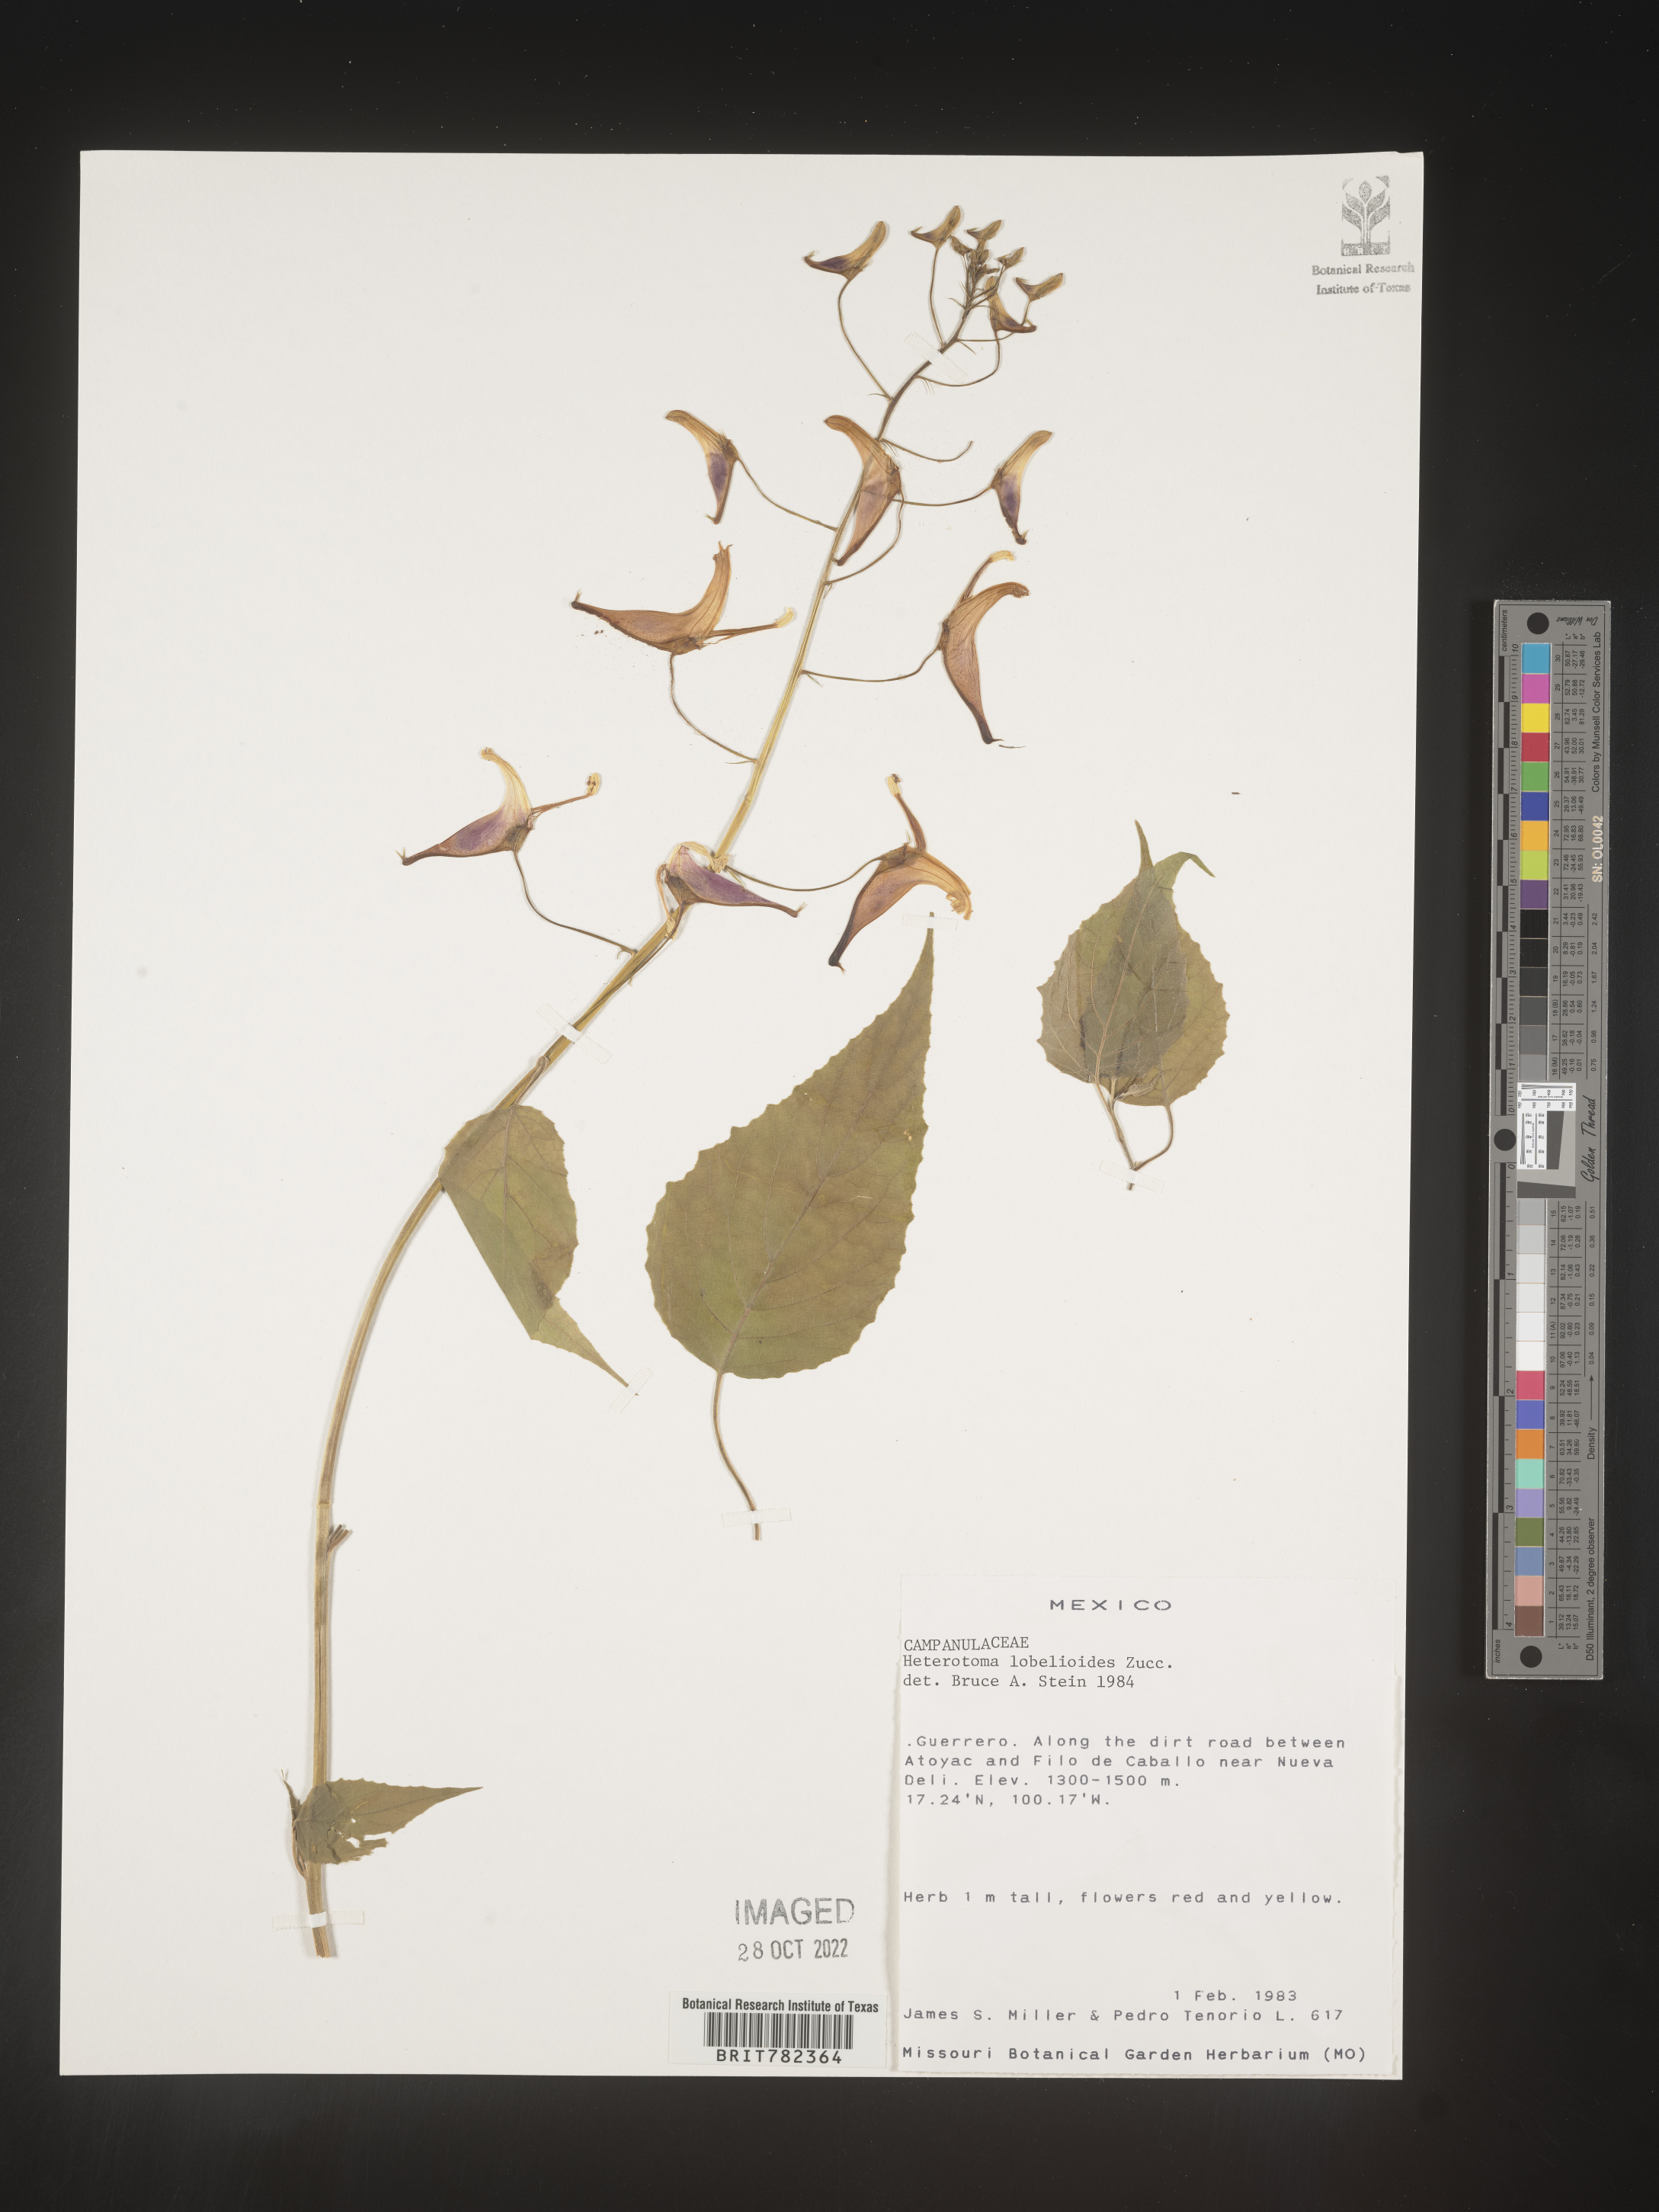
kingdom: Plantae
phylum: Tracheophyta
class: Magnoliopsida
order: Asterales
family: Campanulaceae
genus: Heterotoma
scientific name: Heterotoma
